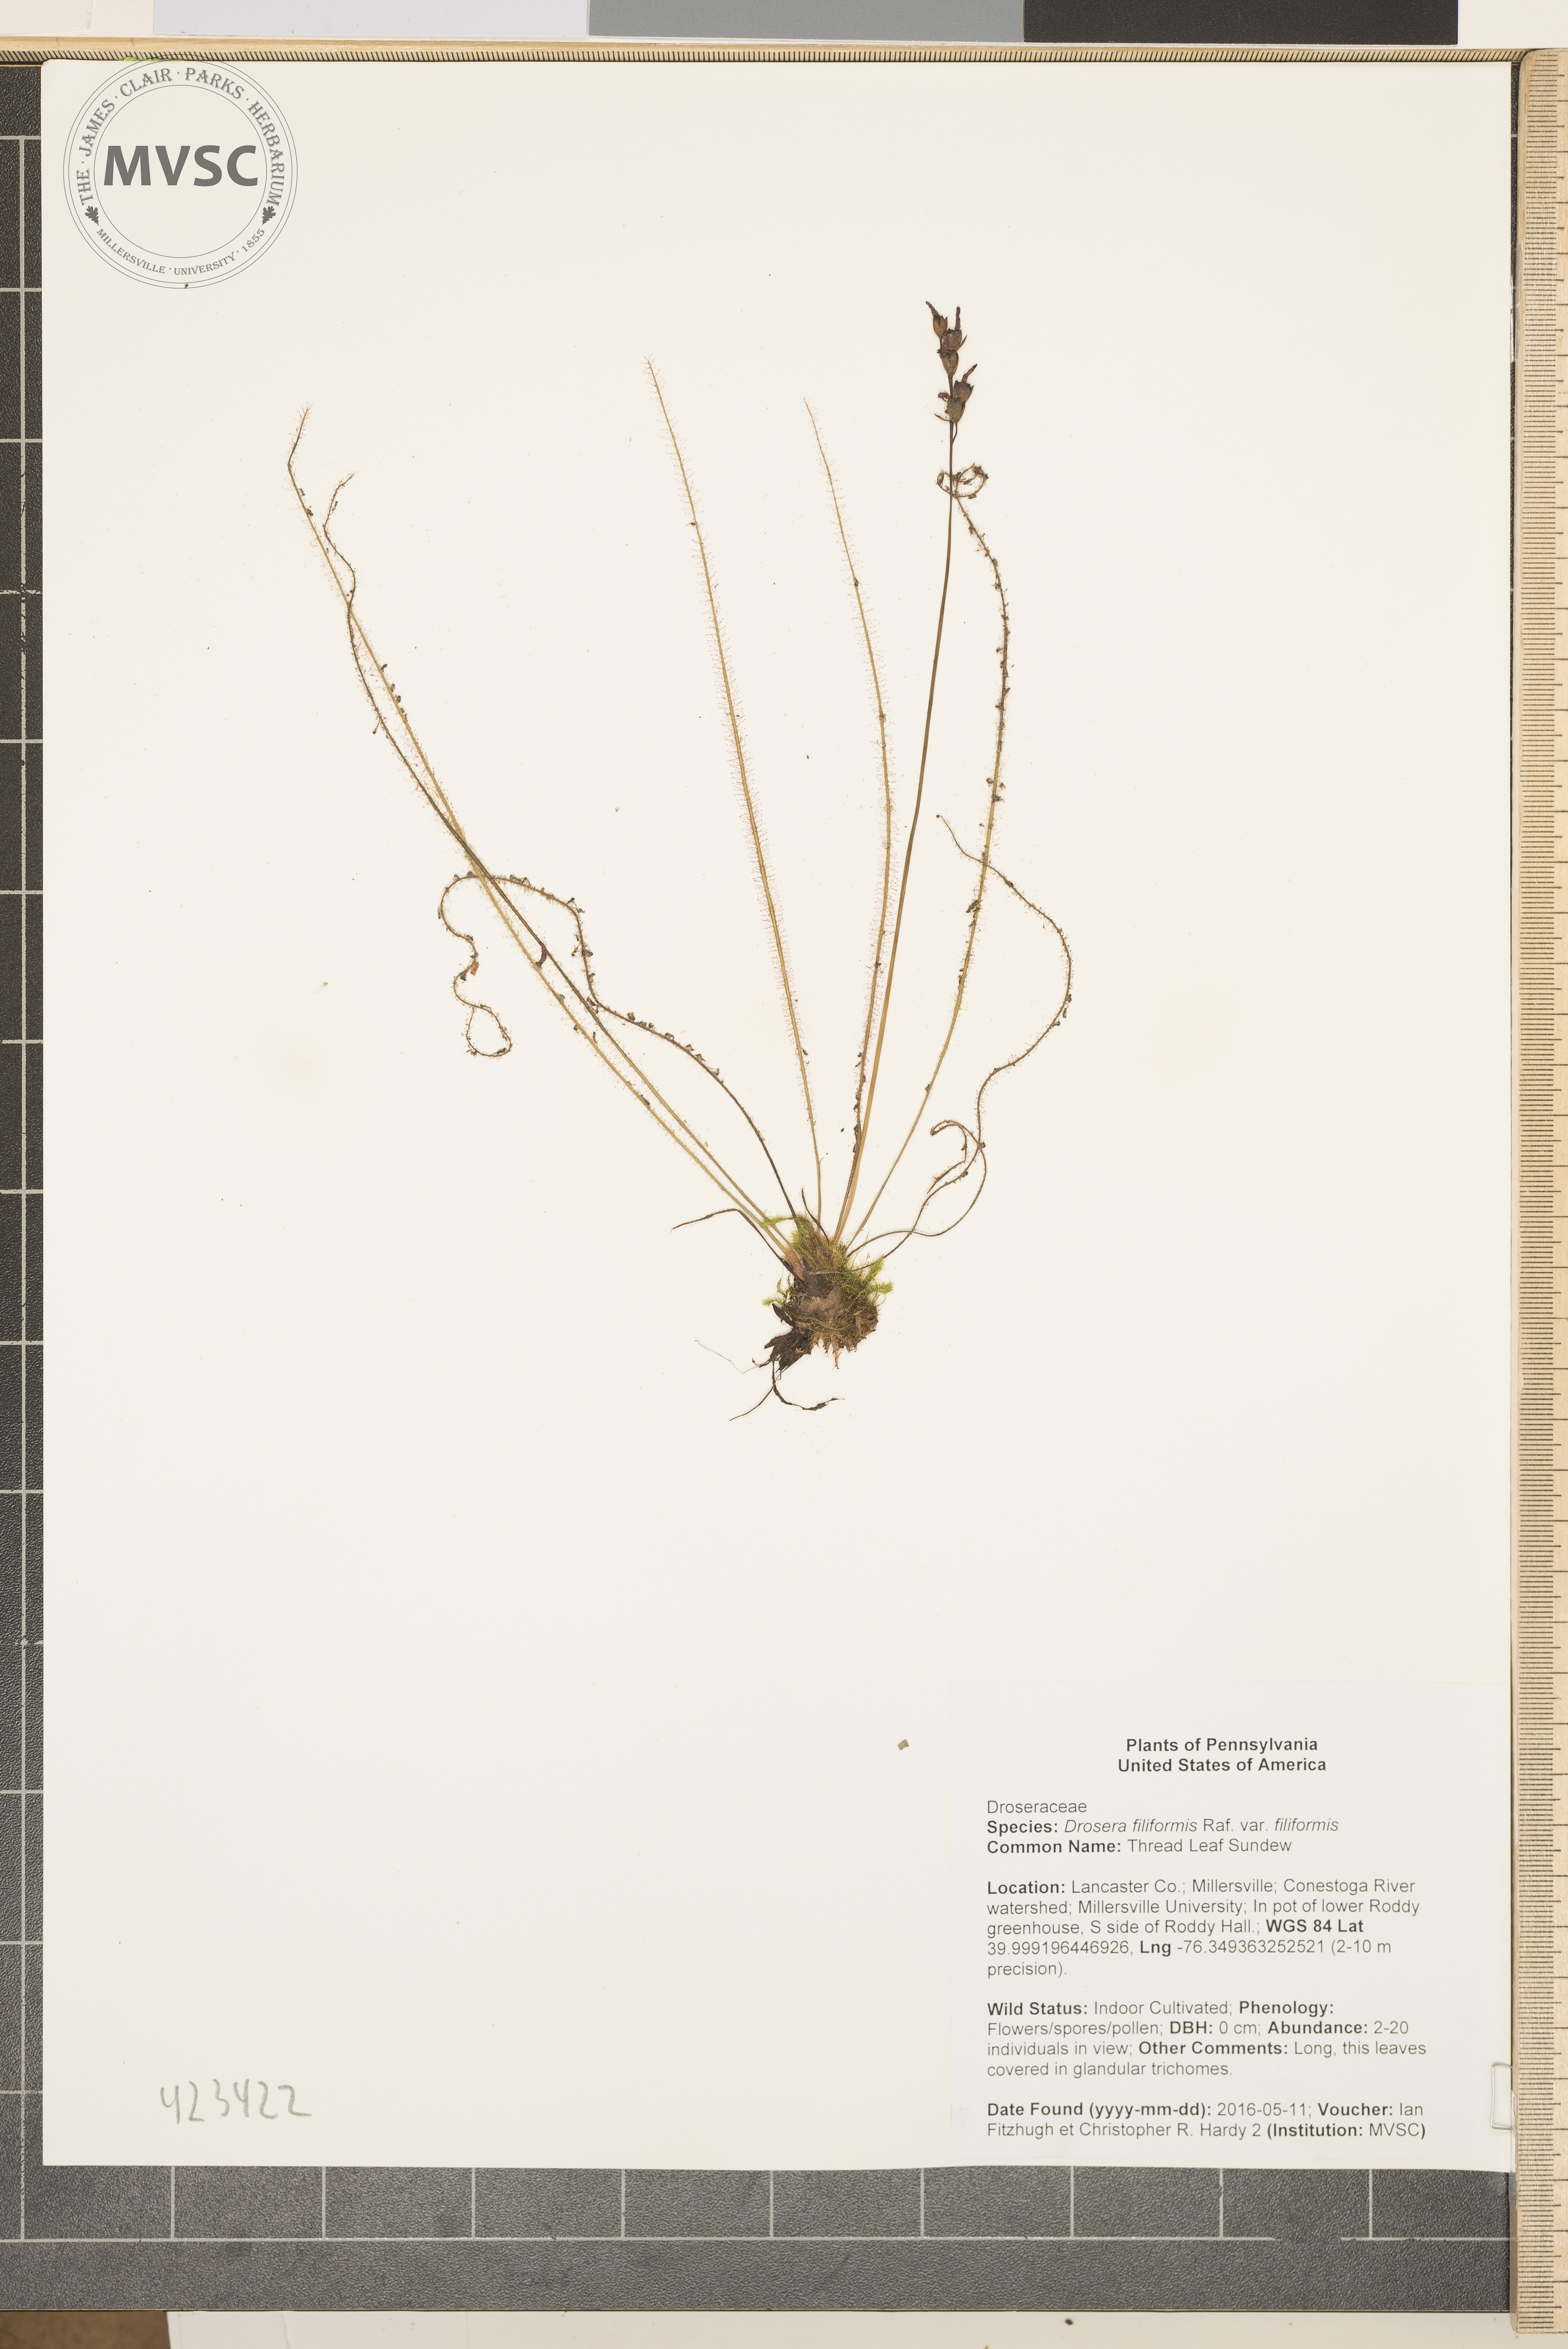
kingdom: Plantae
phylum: Tracheophyta
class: Magnoliopsida
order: Caryophyllales
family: Droseraceae
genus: Drosera
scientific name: Drosera filiformis
